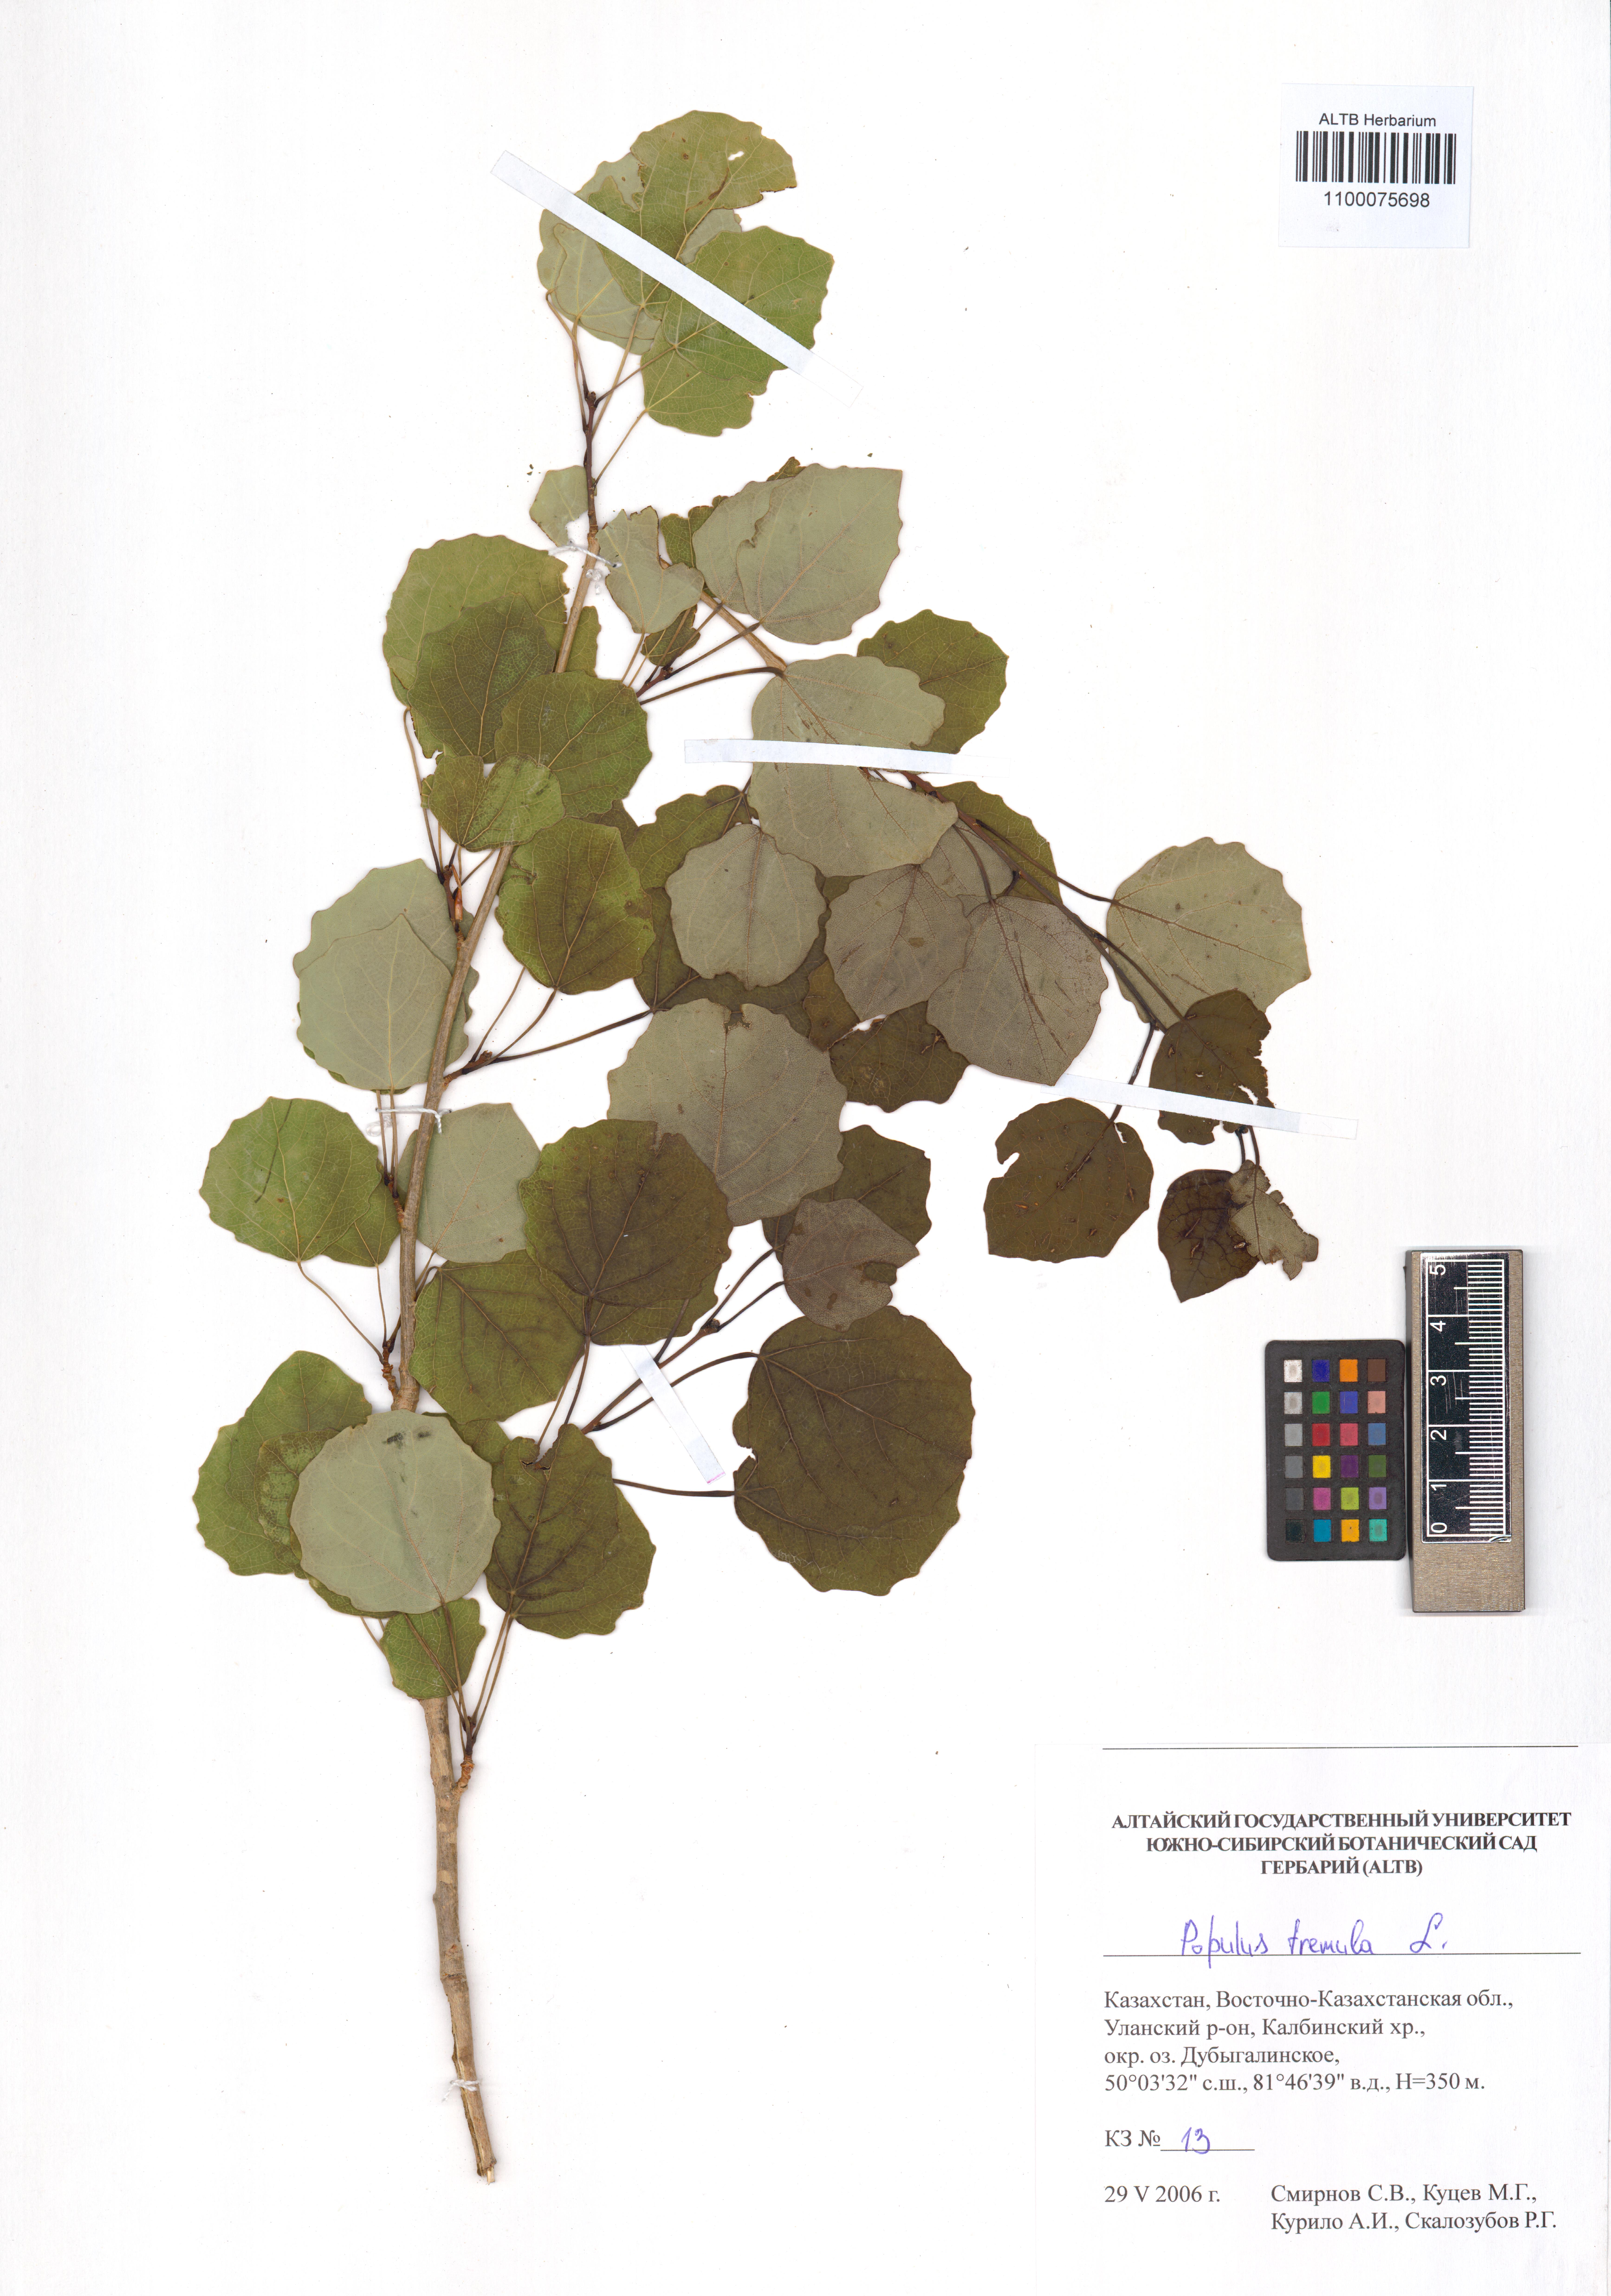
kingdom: Plantae
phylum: Tracheophyta
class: Magnoliopsida
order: Malpighiales
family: Salicaceae
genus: Populus
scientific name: Populus tremula
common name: European aspen
